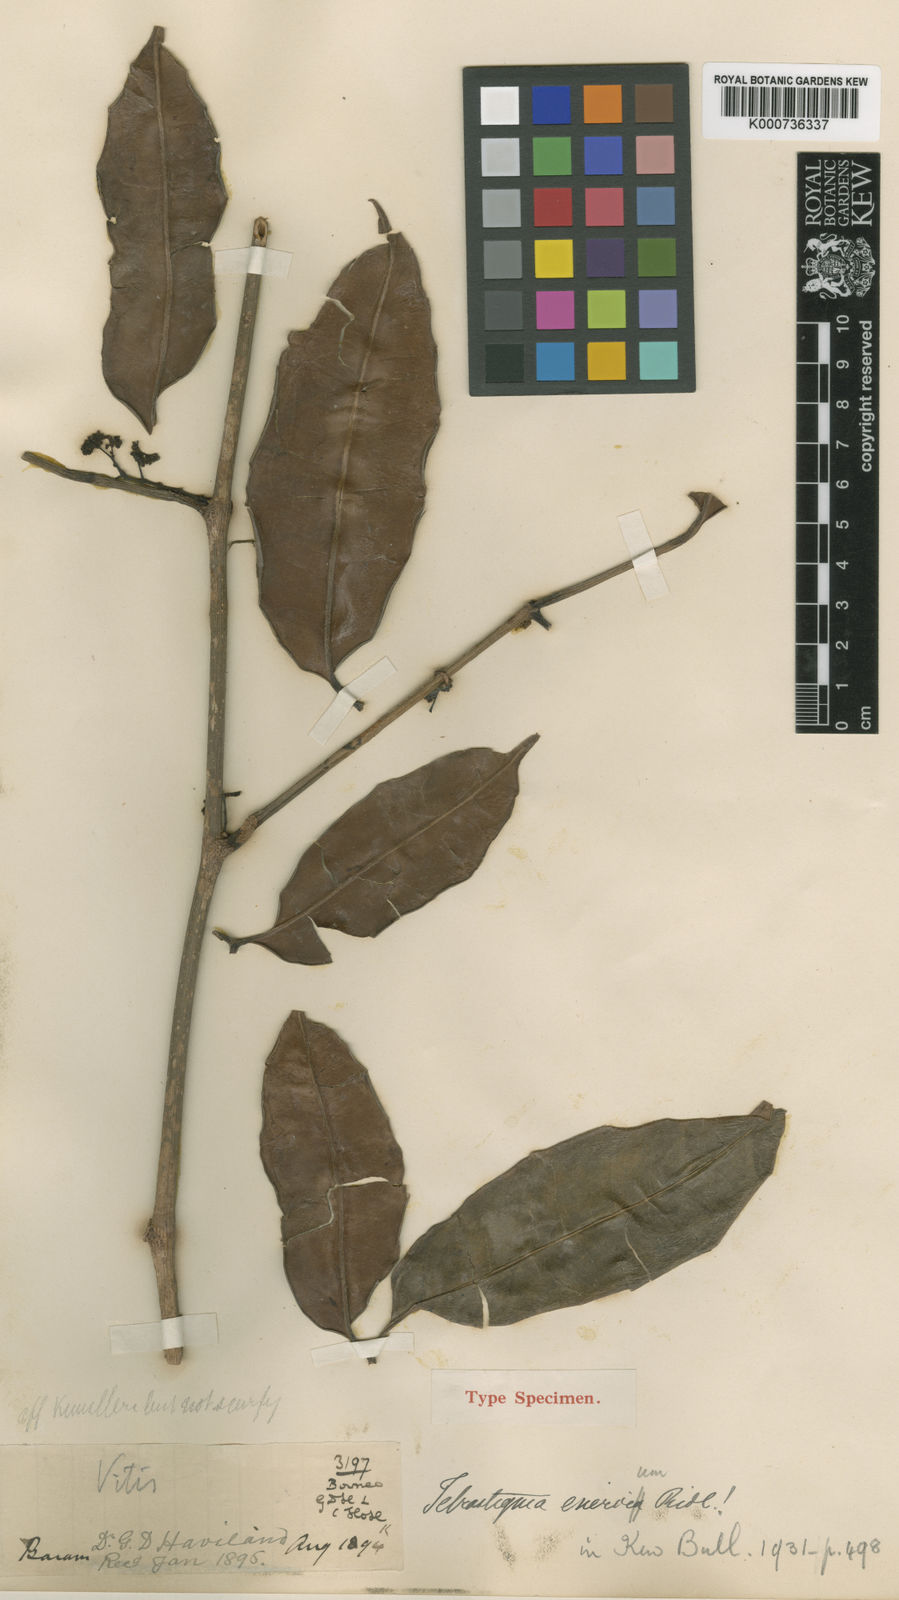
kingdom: Plantae
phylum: Tracheophyta
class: Magnoliopsida
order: Vitales
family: Vitaceae
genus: Tetrastigma
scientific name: Tetrastigma enervium
